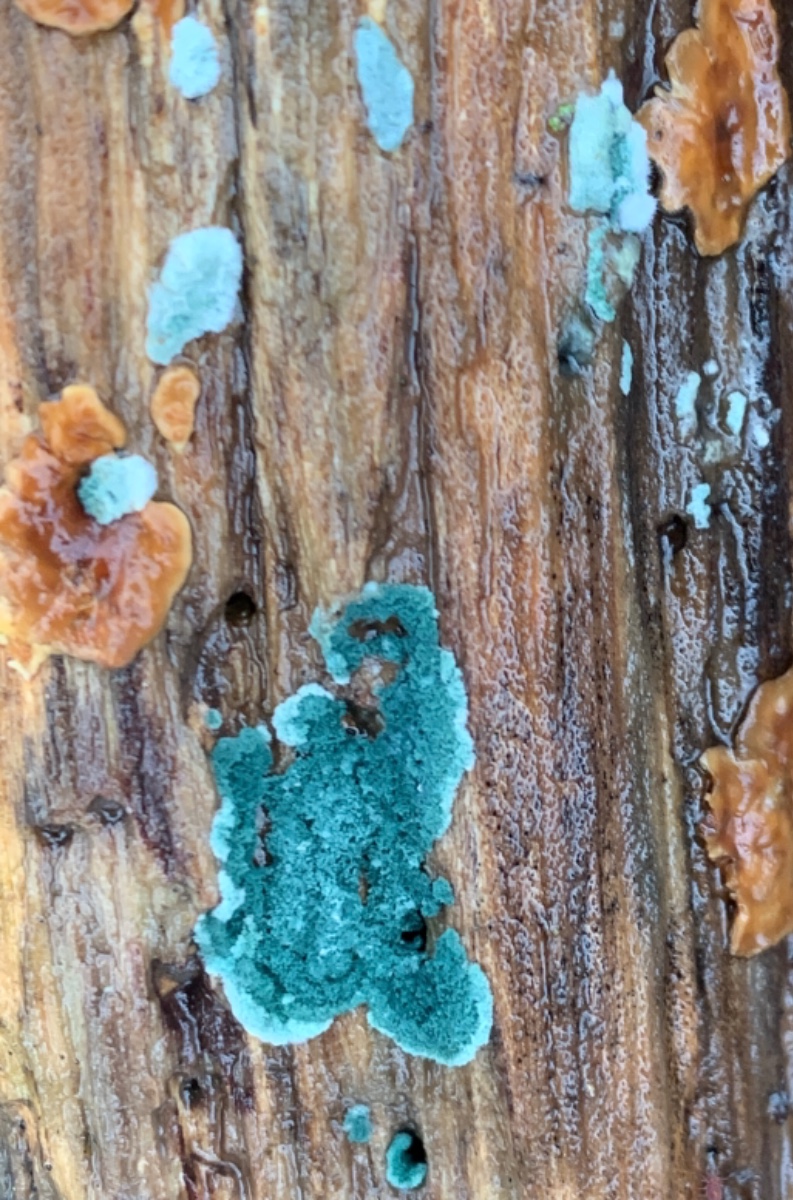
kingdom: Fungi
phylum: Ascomycota
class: Sordariomycetes
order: Hypocreales
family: Hypocreaceae
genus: Trichoderma
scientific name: Trichoderma
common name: kødkerne
